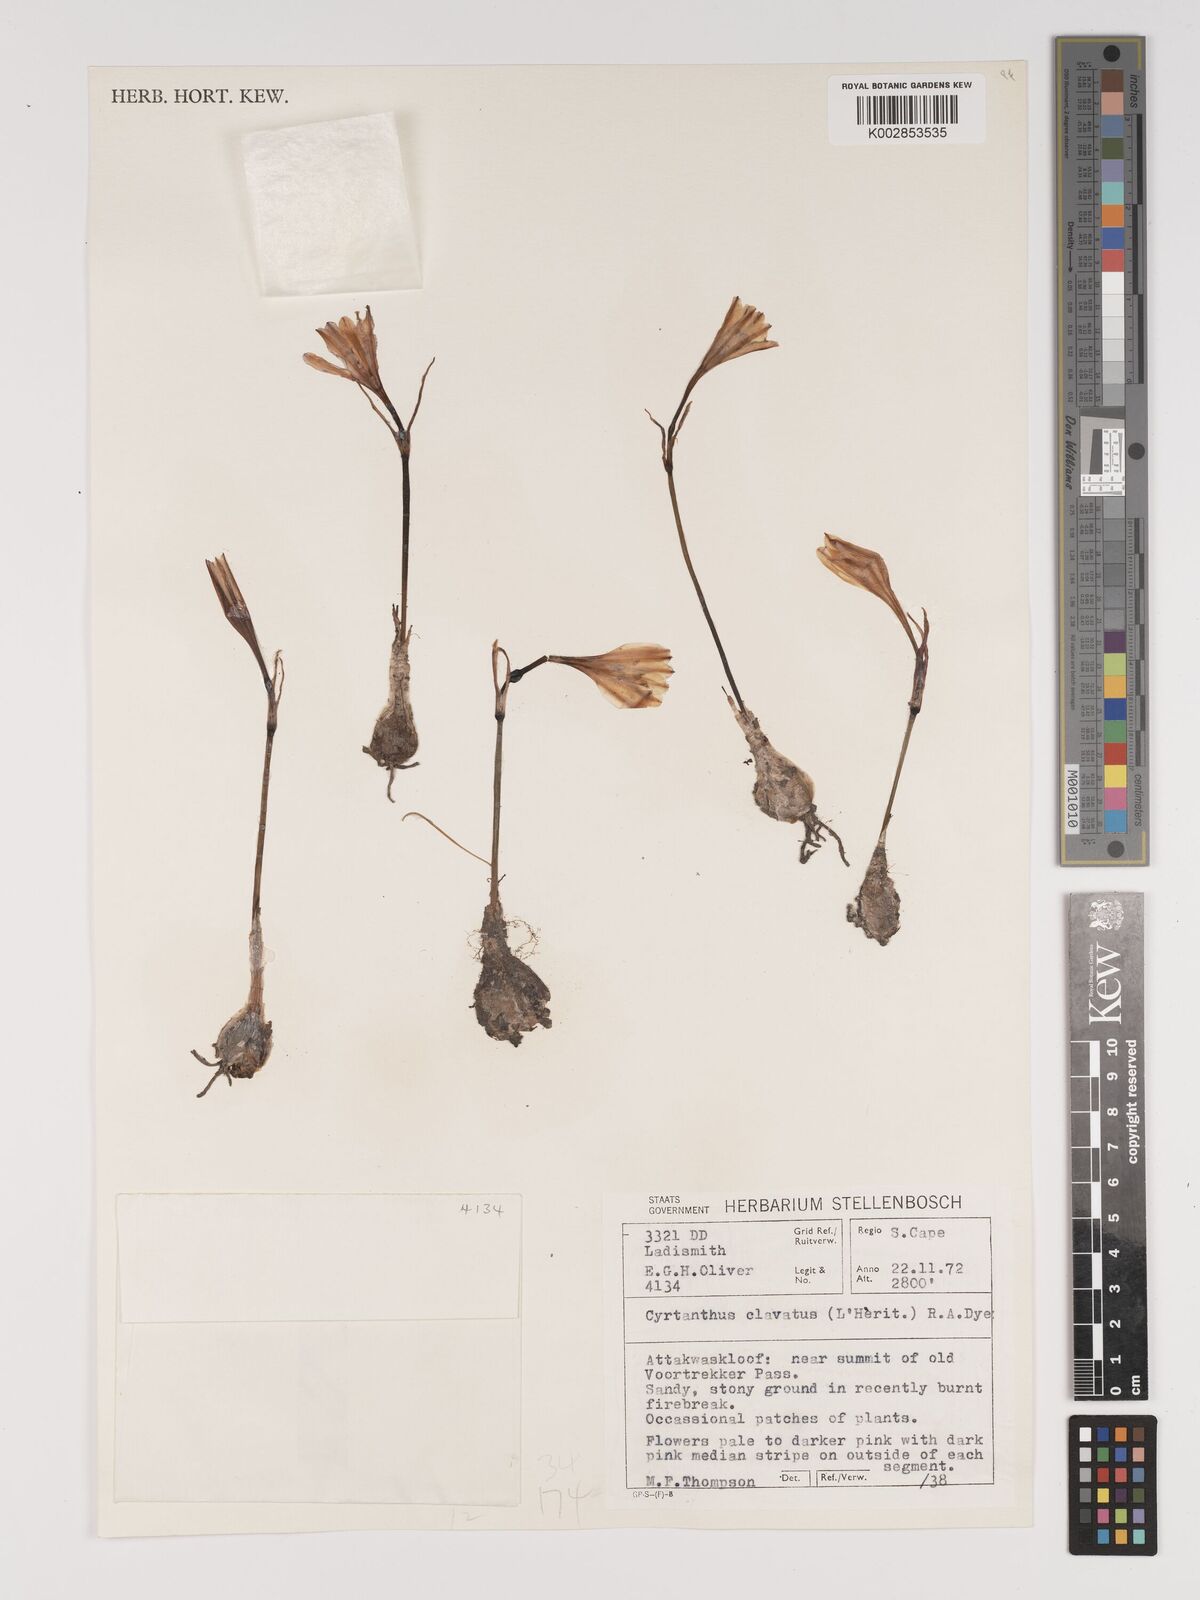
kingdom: Plantae
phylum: Tracheophyta
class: Liliopsida
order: Asparagales
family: Amaryllidaceae
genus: Cyrtanthus
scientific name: Cyrtanthus clavatus
